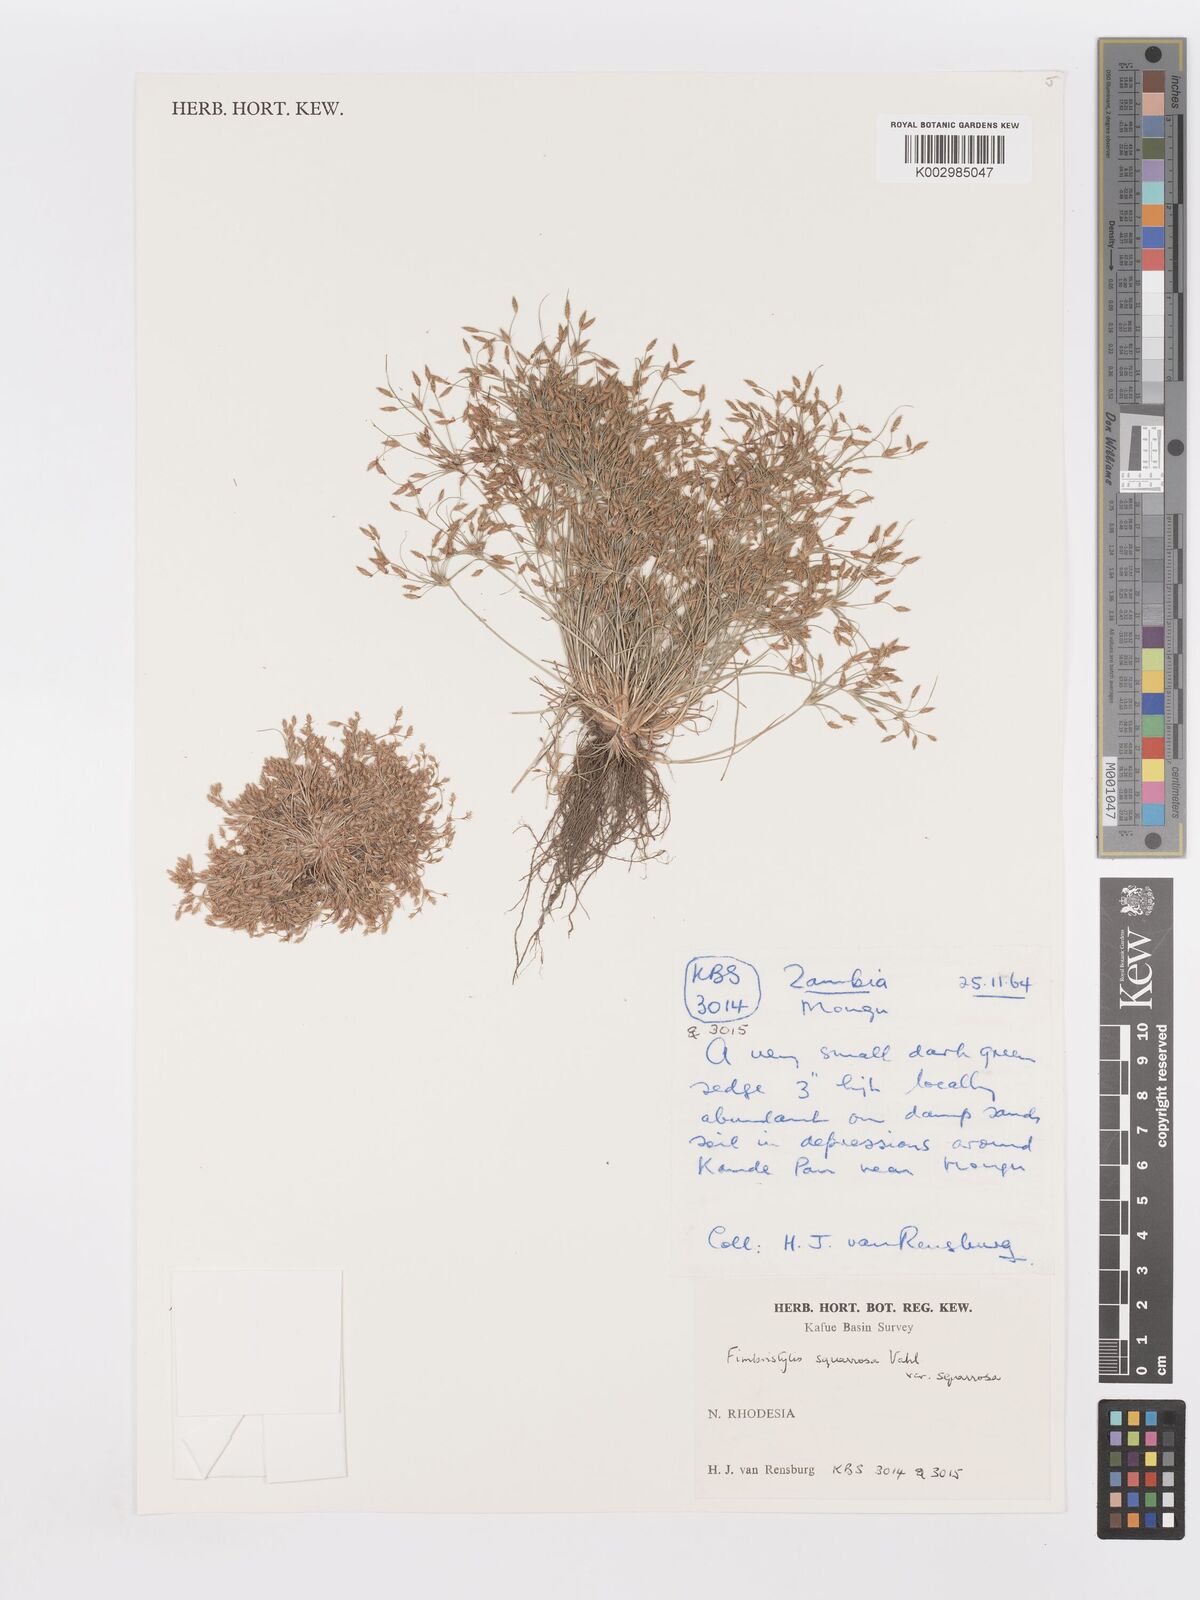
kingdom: Plantae
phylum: Tracheophyta
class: Liliopsida
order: Poales
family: Cyperaceae
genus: Fimbristylis
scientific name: Fimbristylis squarrosa
